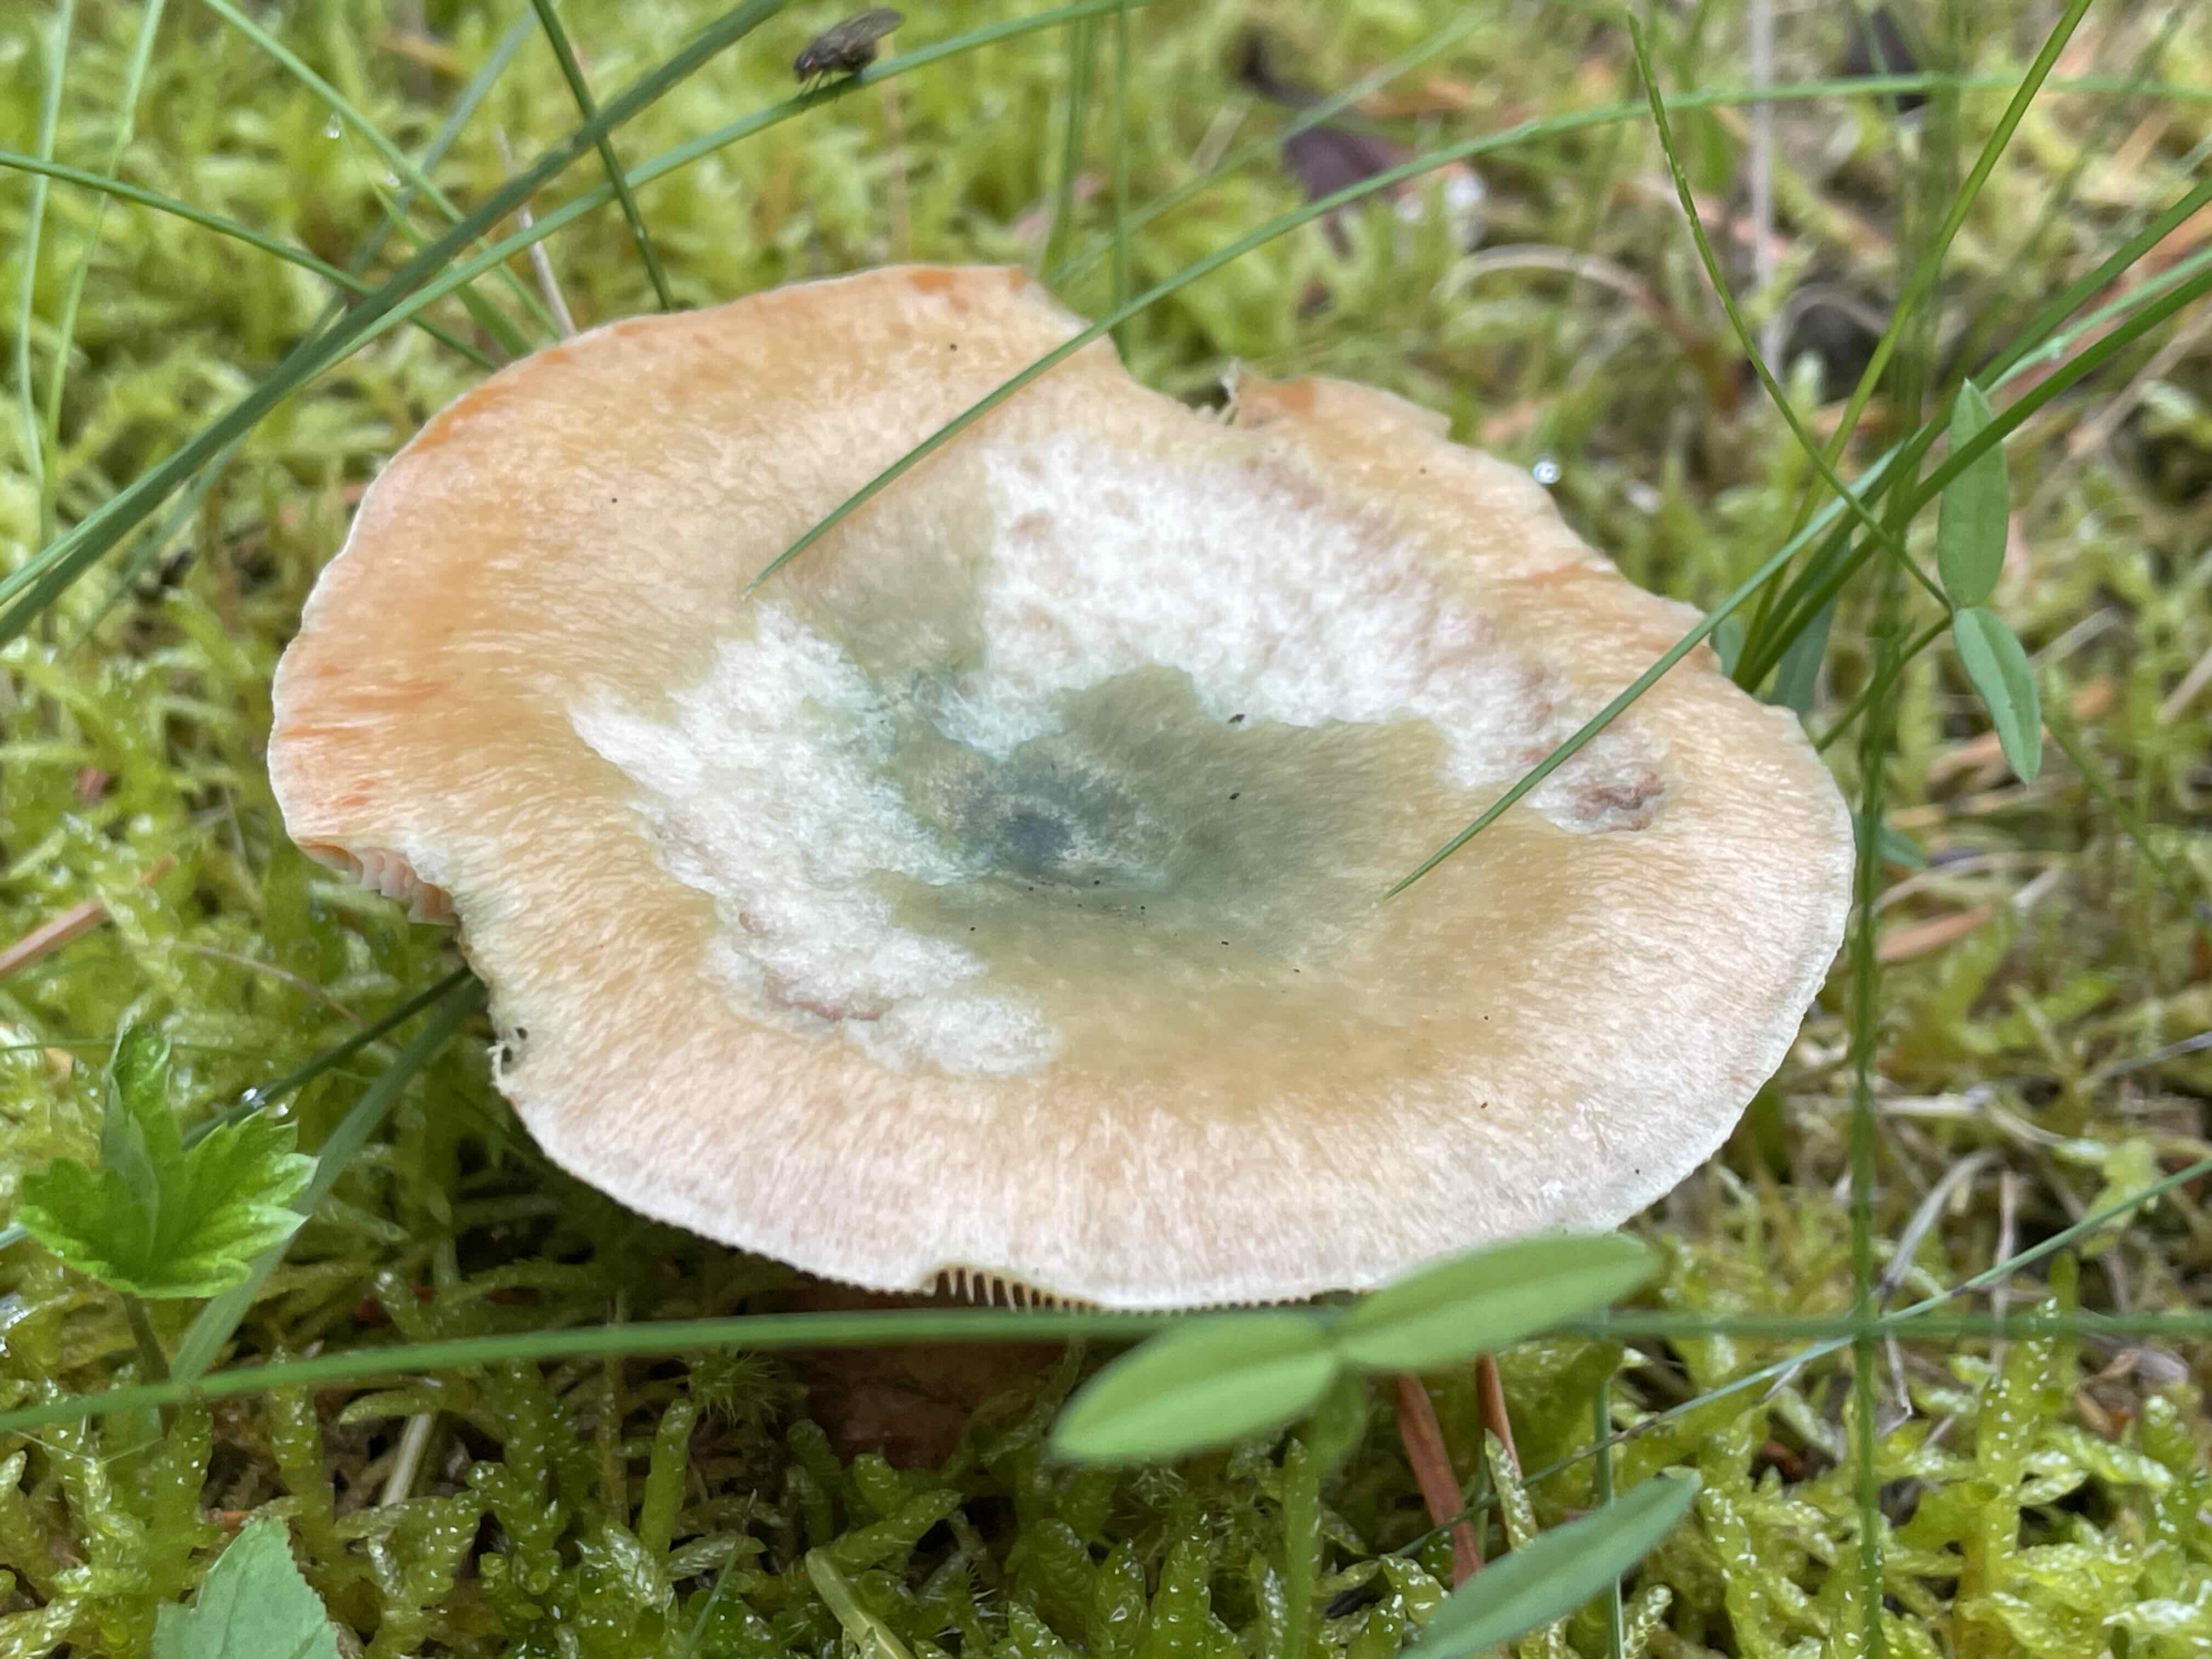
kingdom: Fungi
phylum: Basidiomycota
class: Agaricomycetes
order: Russulales
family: Russulaceae
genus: Lactarius
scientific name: Lactarius deterrimus
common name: gran-mælkehat
